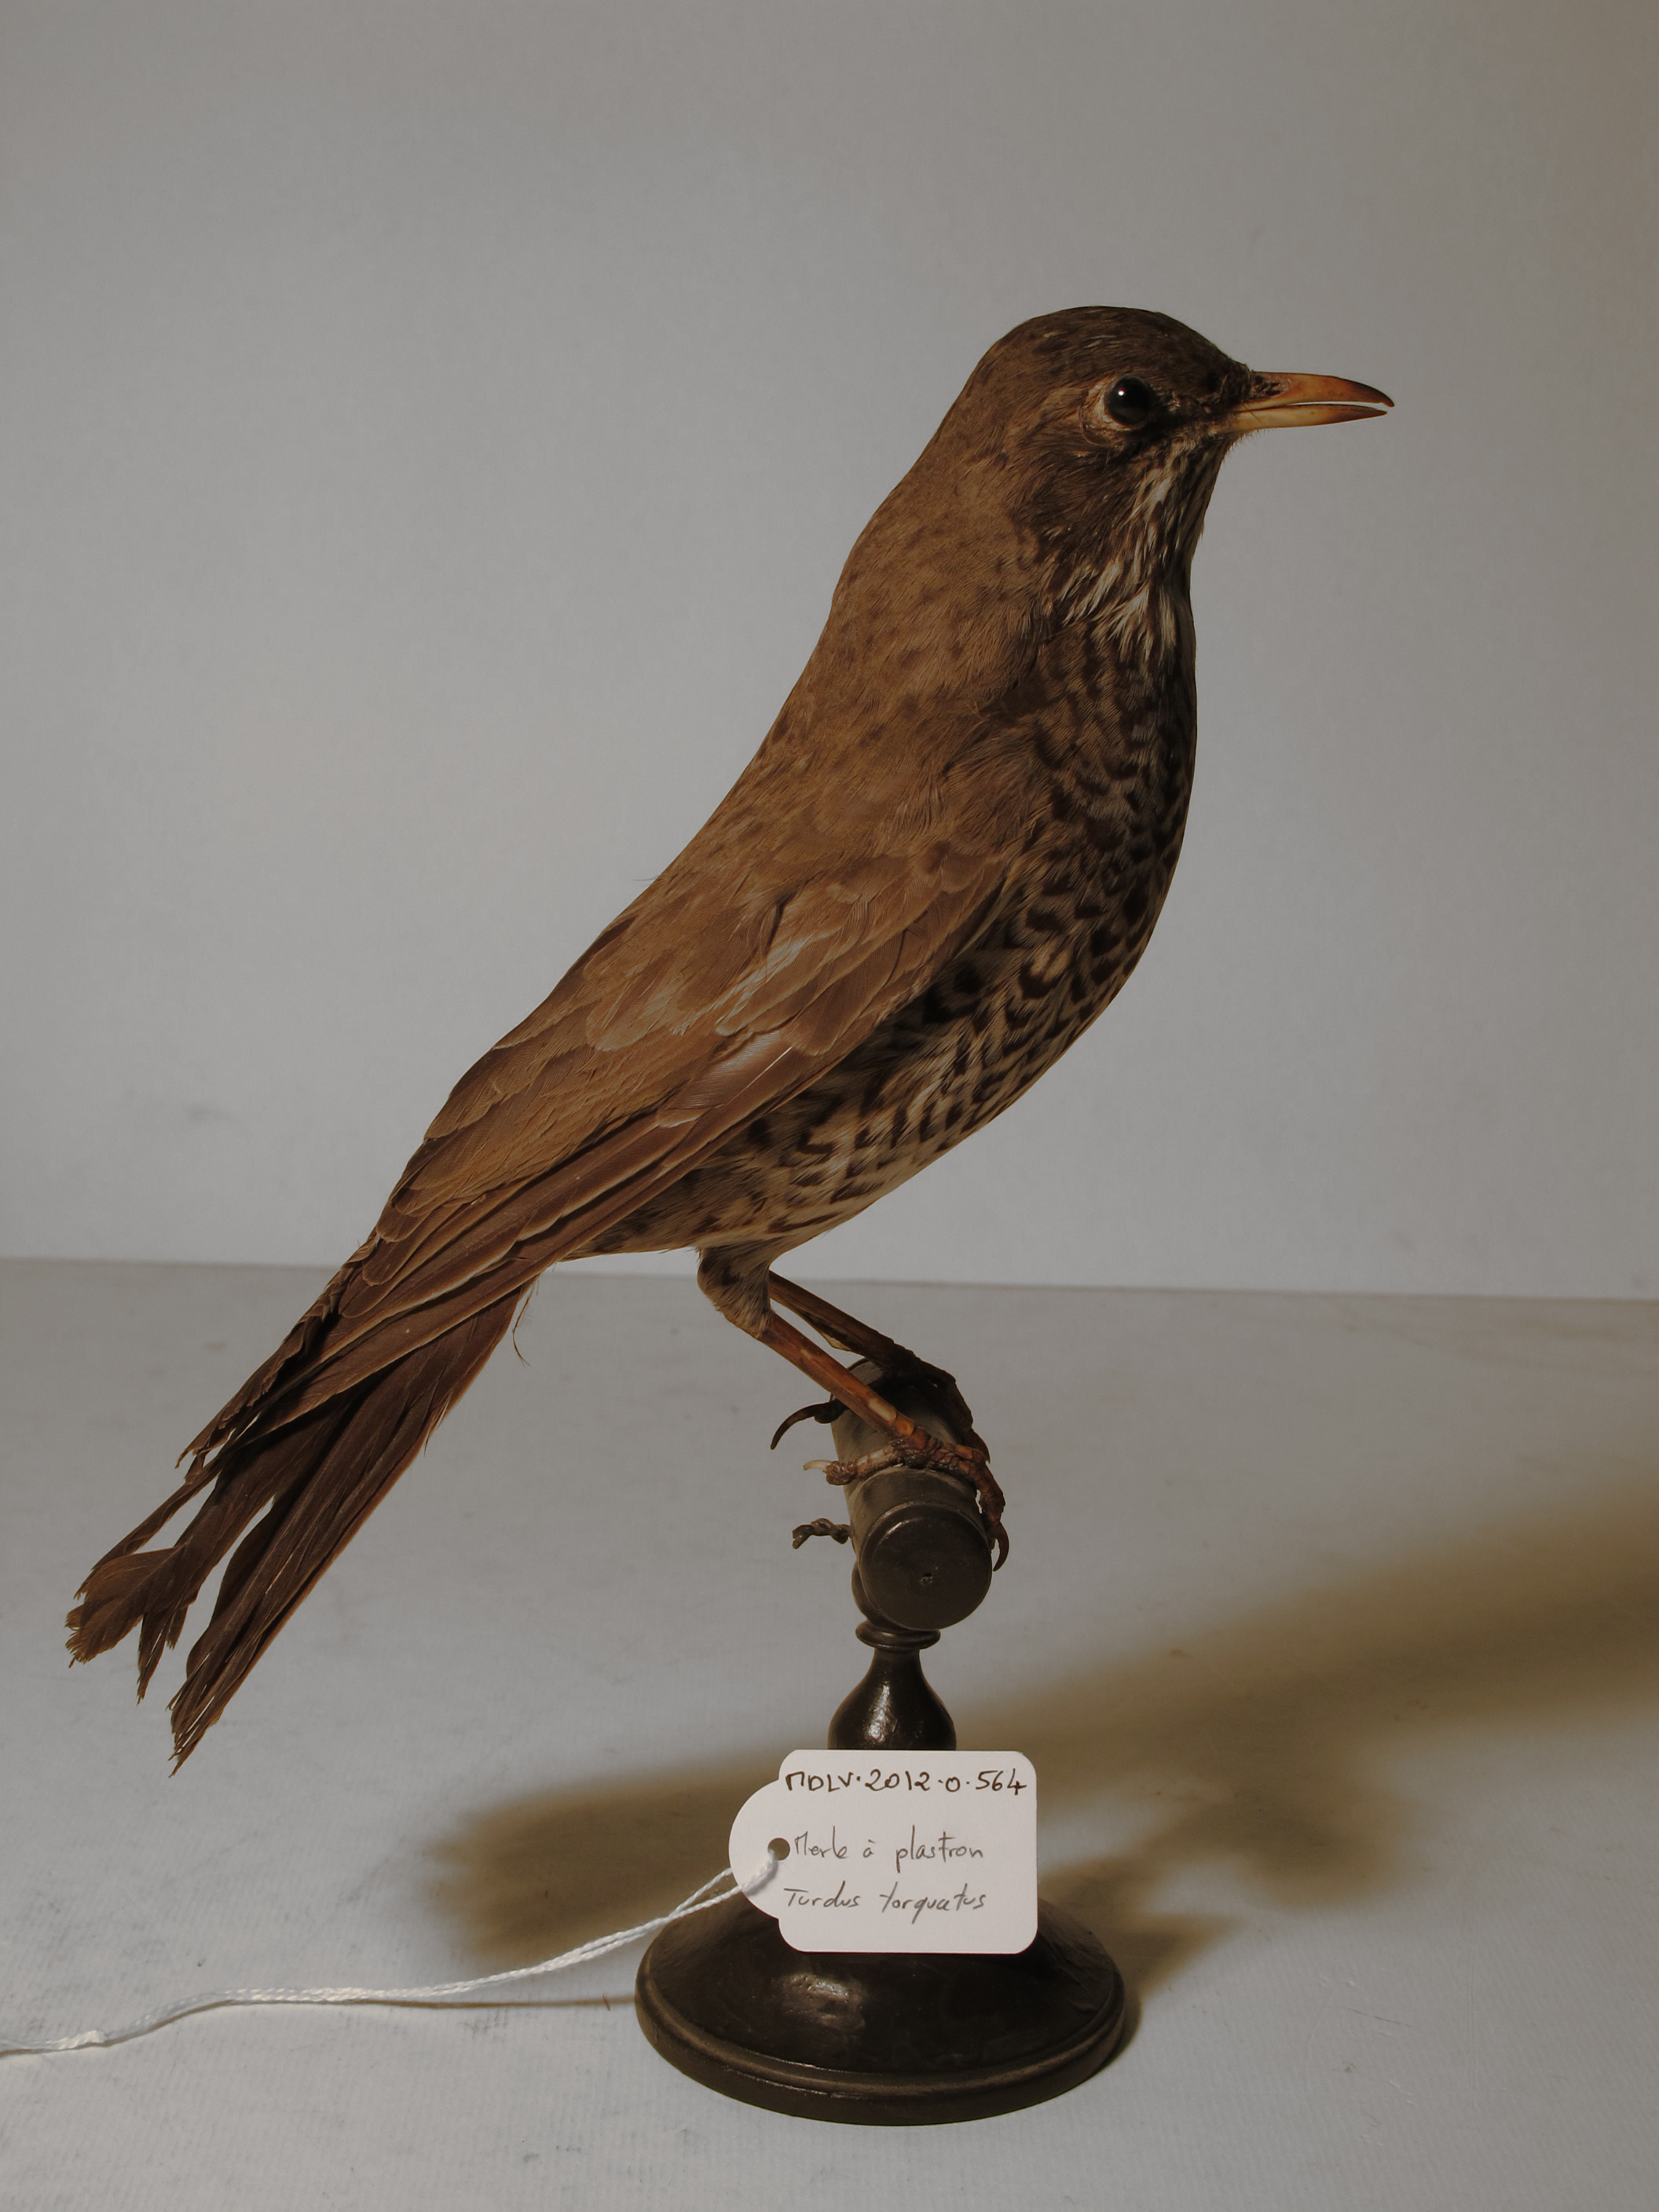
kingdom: Animalia
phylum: Chordata
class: Aves
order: Passeriformes
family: Turdidae
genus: Turdus
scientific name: Turdus torquatus
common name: Ring Ouzel
